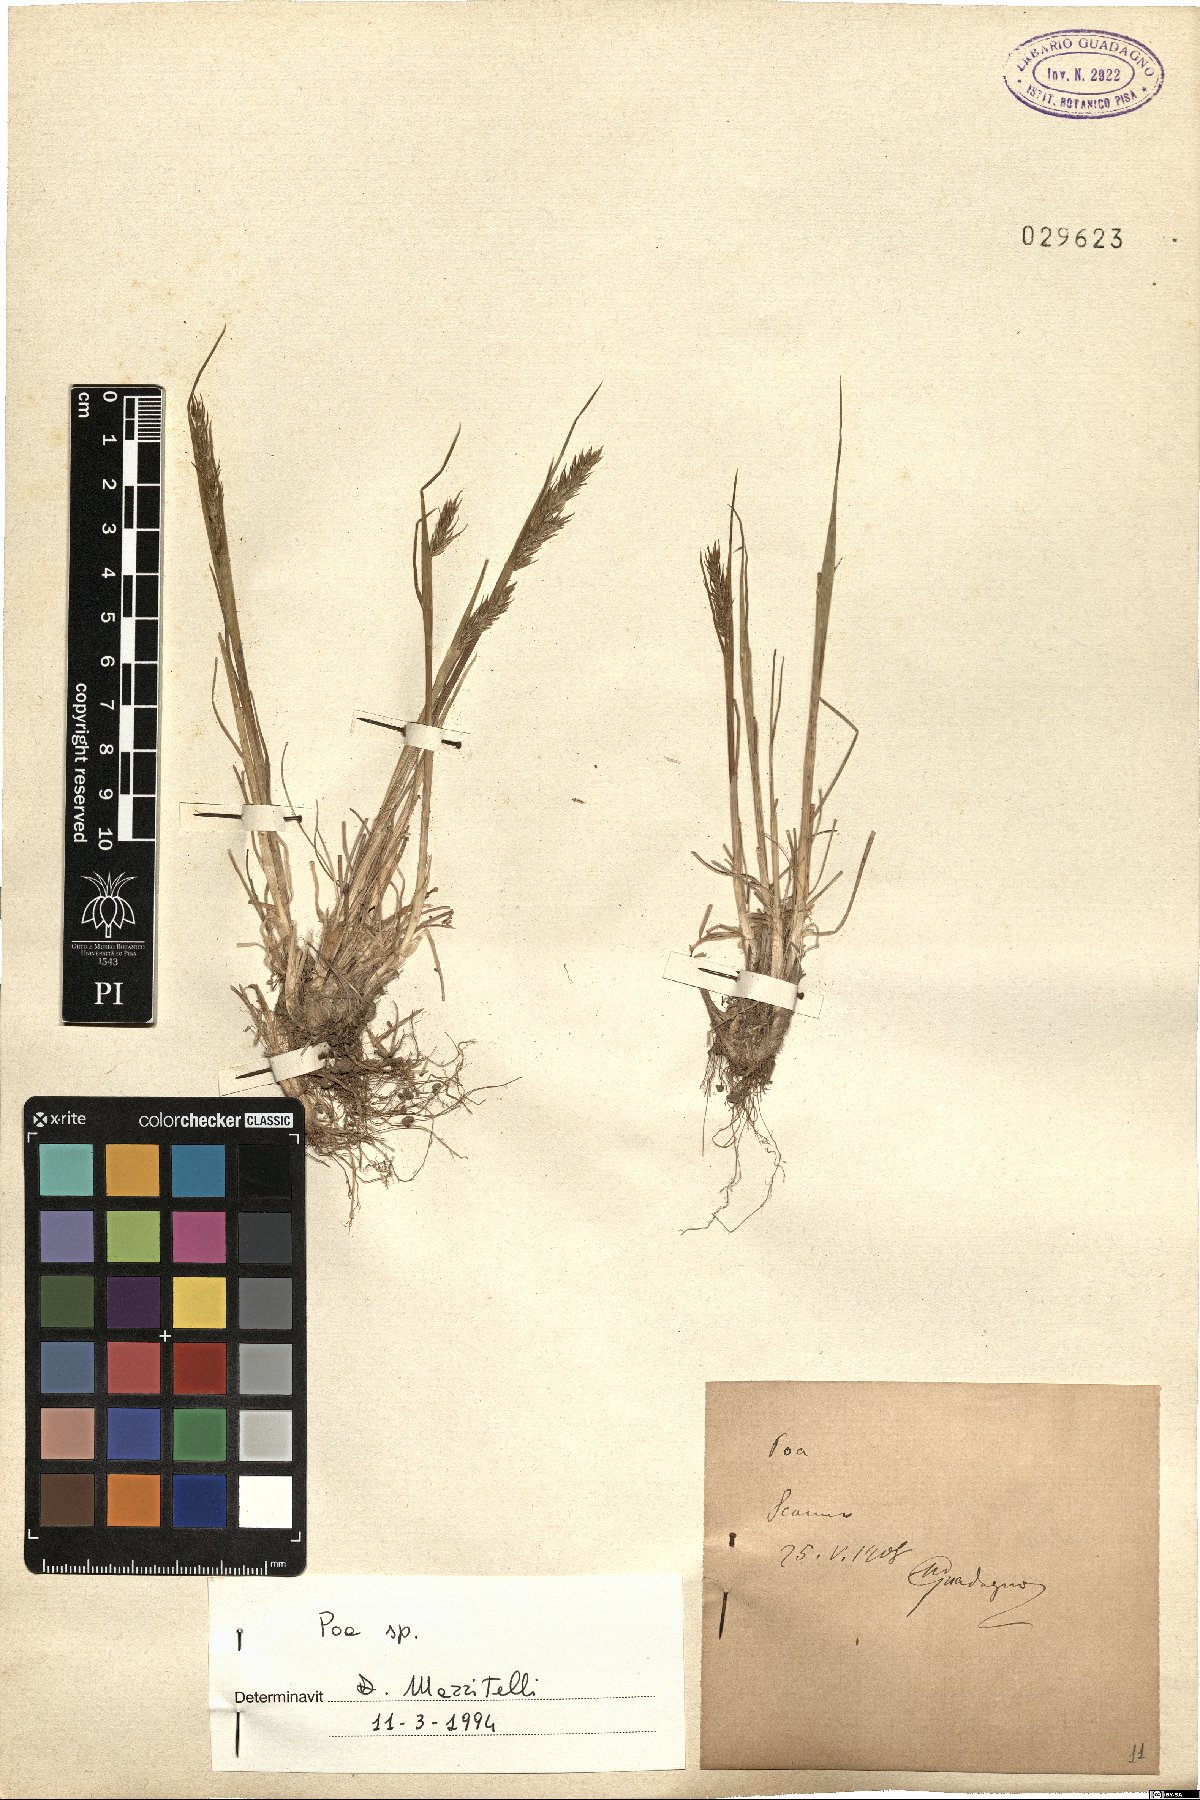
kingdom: Plantae
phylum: Tracheophyta
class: Liliopsida
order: Poales
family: Poaceae
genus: Poa
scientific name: Poa
